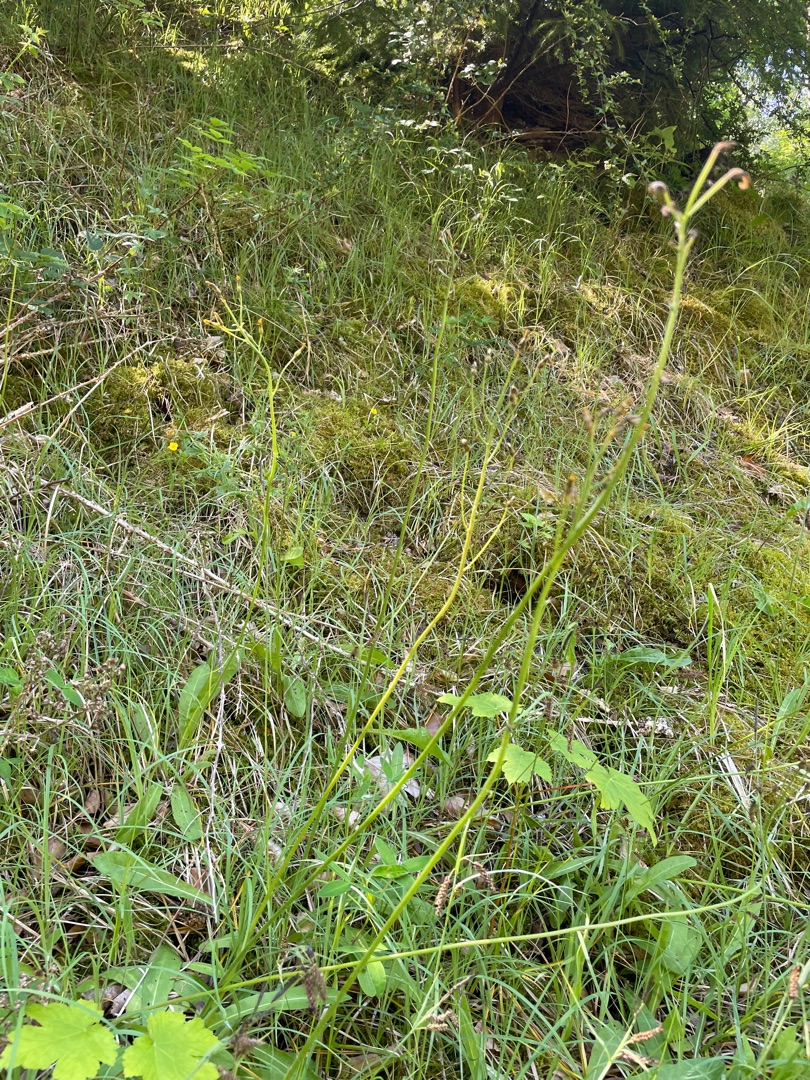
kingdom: Plantae
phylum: Tracheophyta
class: Magnoliopsida
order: Asterales
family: Asteraceae
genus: Crepis
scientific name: Crepis praemorsa
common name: Afbidt høgeskæg
